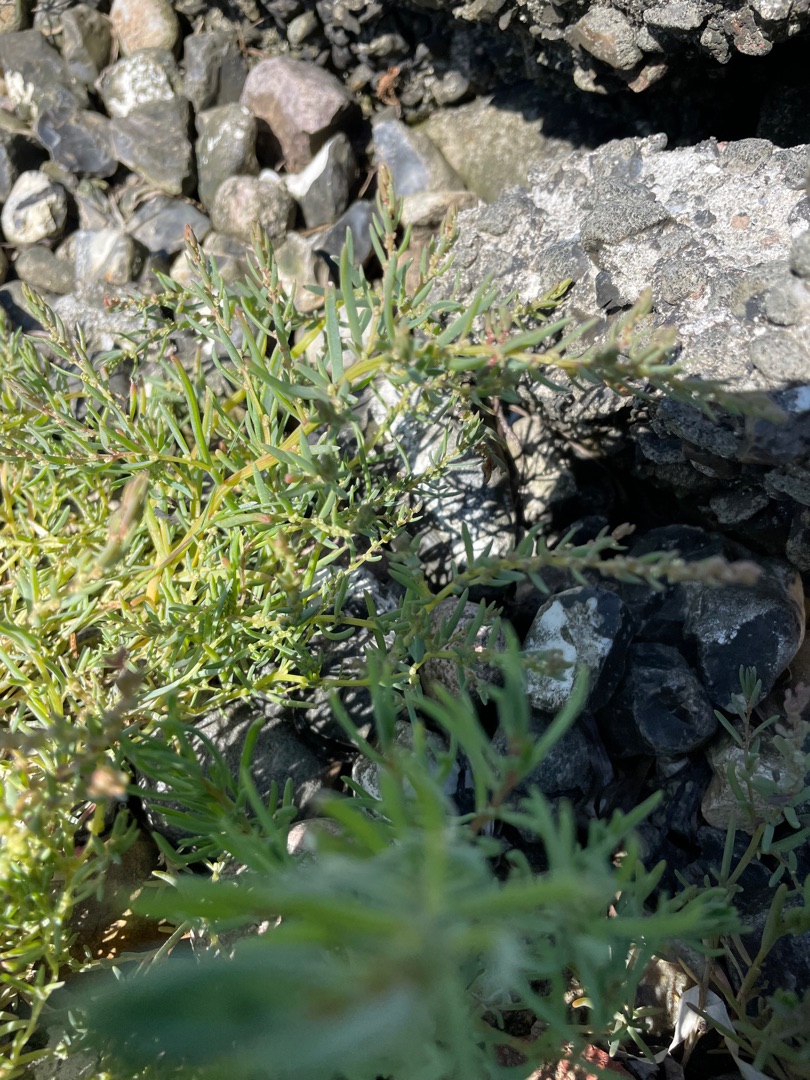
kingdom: Plantae
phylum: Tracheophyta
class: Magnoliopsida
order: Caryophyllales
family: Amaranthaceae
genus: Suaeda
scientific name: Suaeda maritima
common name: Strandgåsefod
